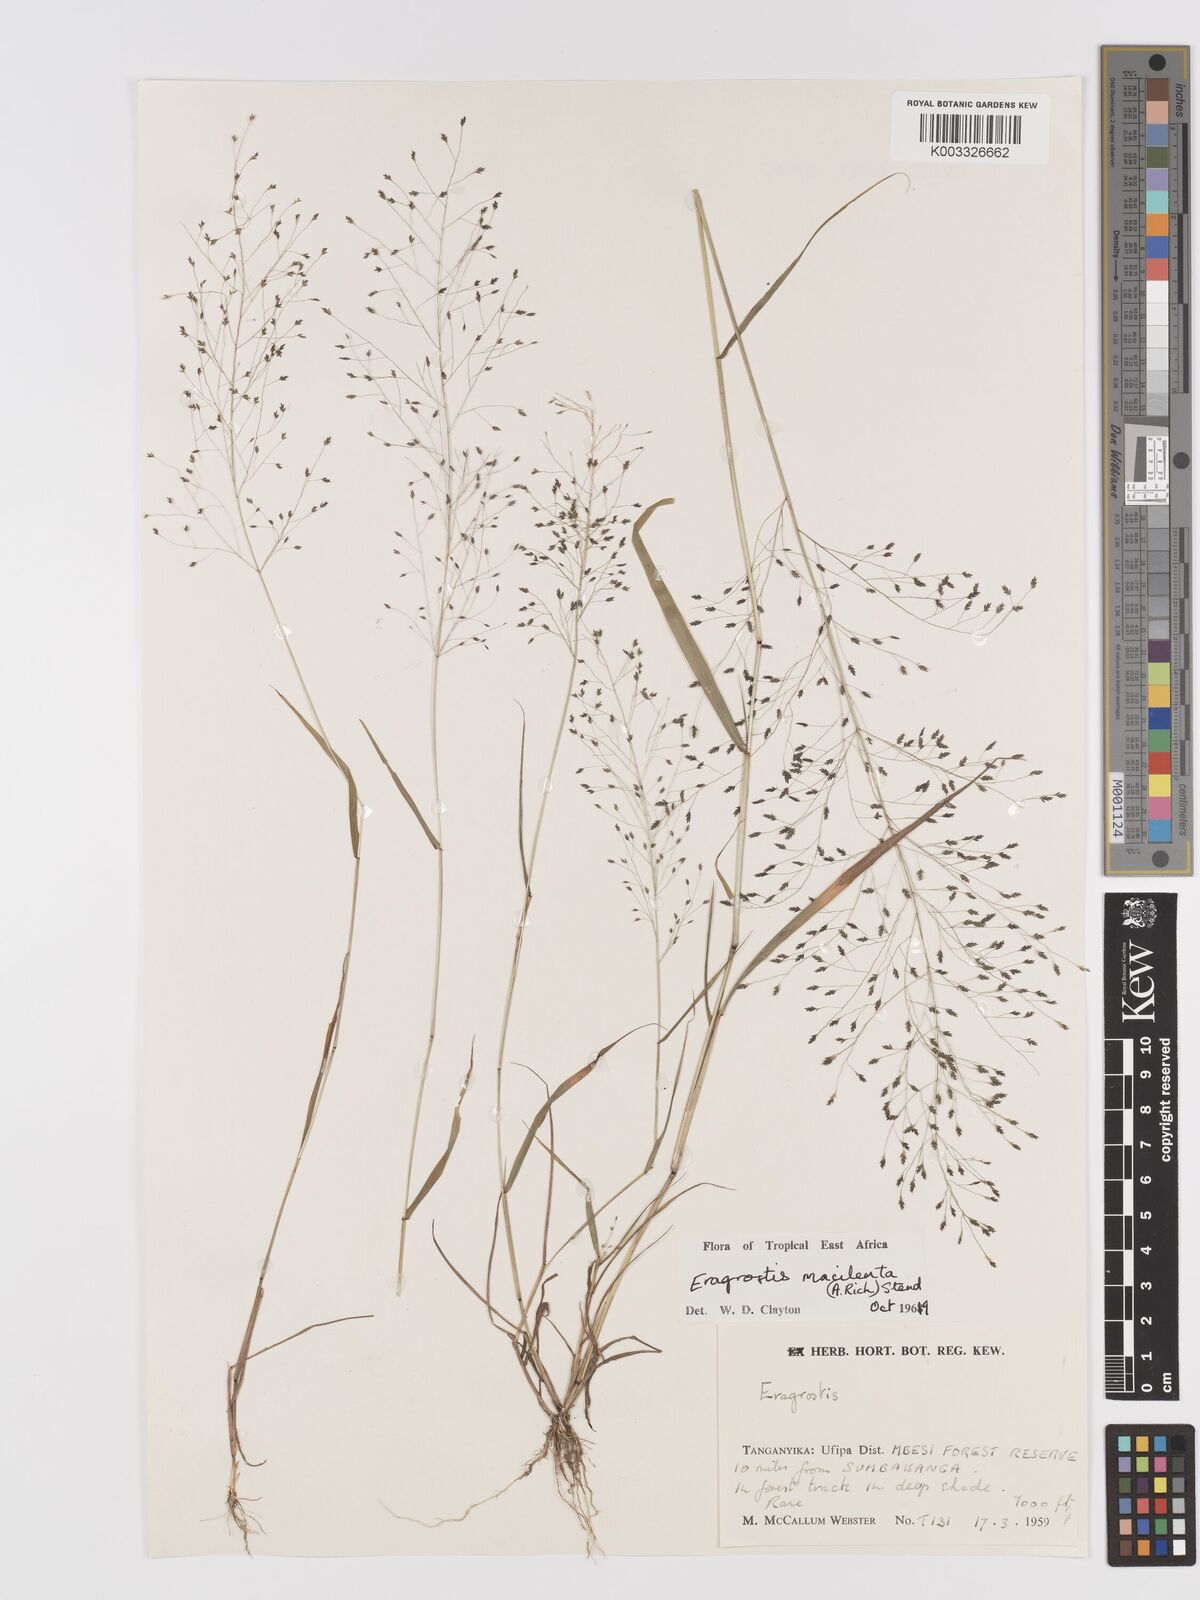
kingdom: Plantae
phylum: Tracheophyta
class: Liliopsida
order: Poales
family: Poaceae
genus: Eragrostis
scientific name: Eragrostis macilenta
